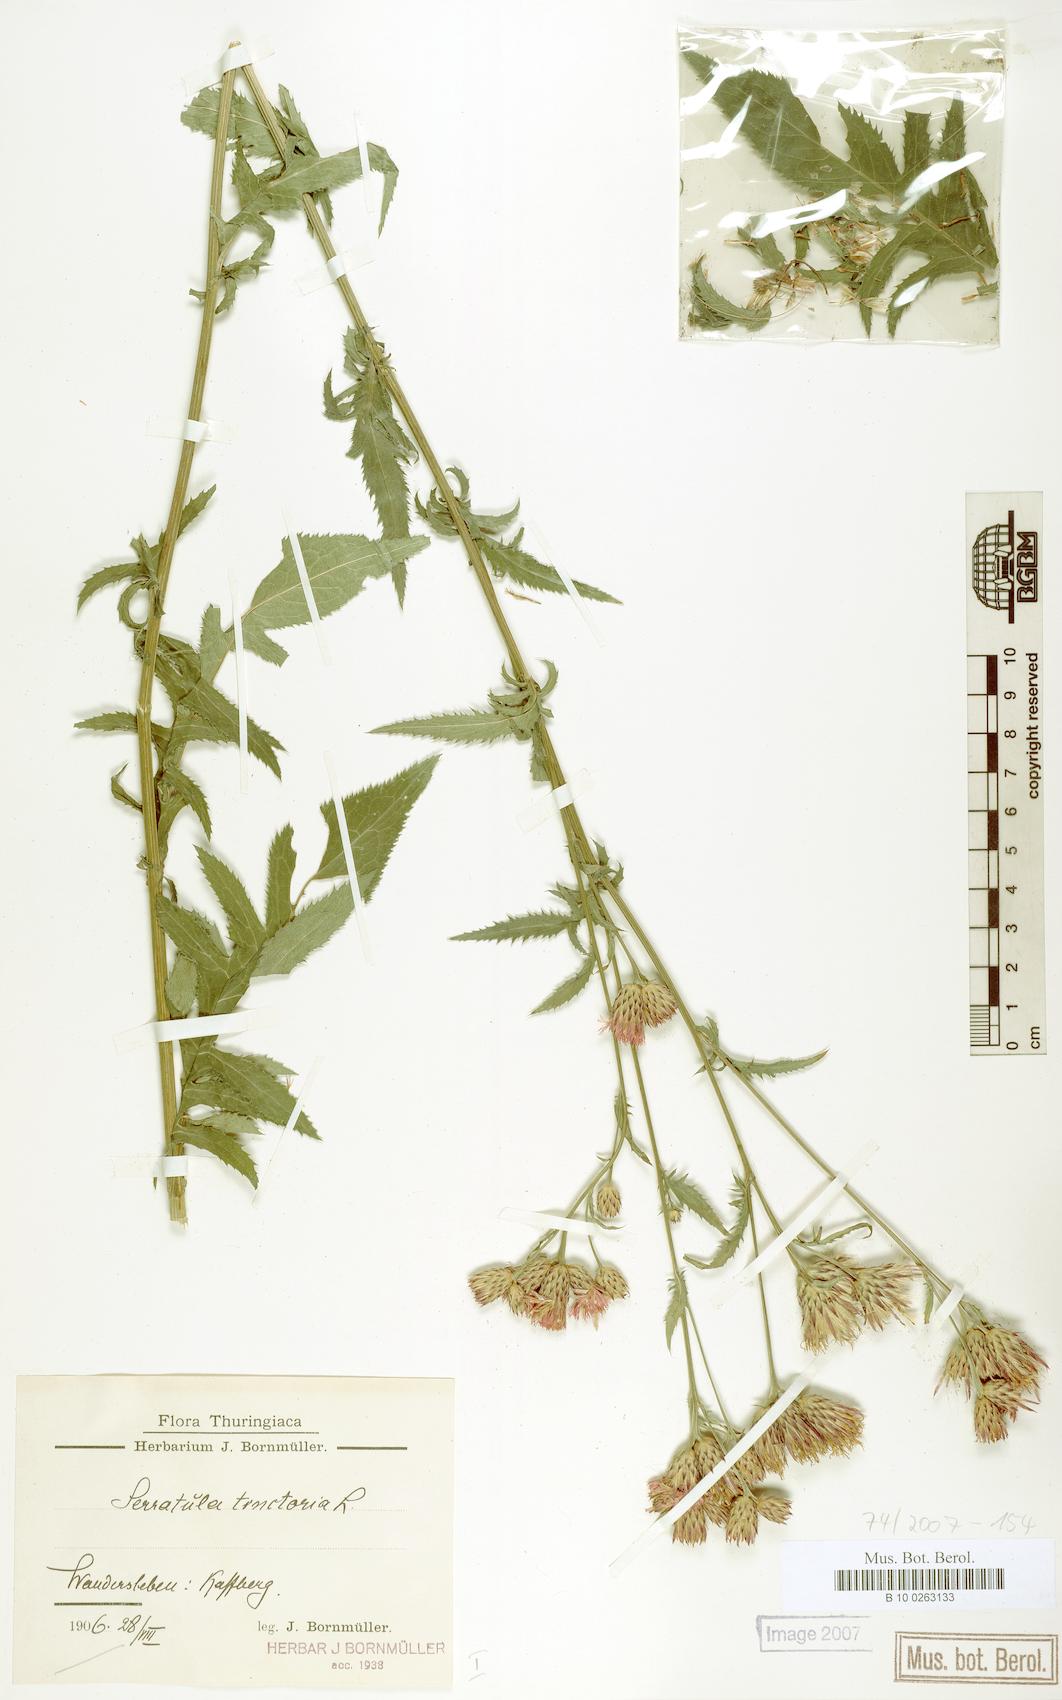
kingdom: Plantae
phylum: Tracheophyta
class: Magnoliopsida
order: Asterales
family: Asteraceae
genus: Serratula
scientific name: Serratula tinctoria
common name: Saw-wort
